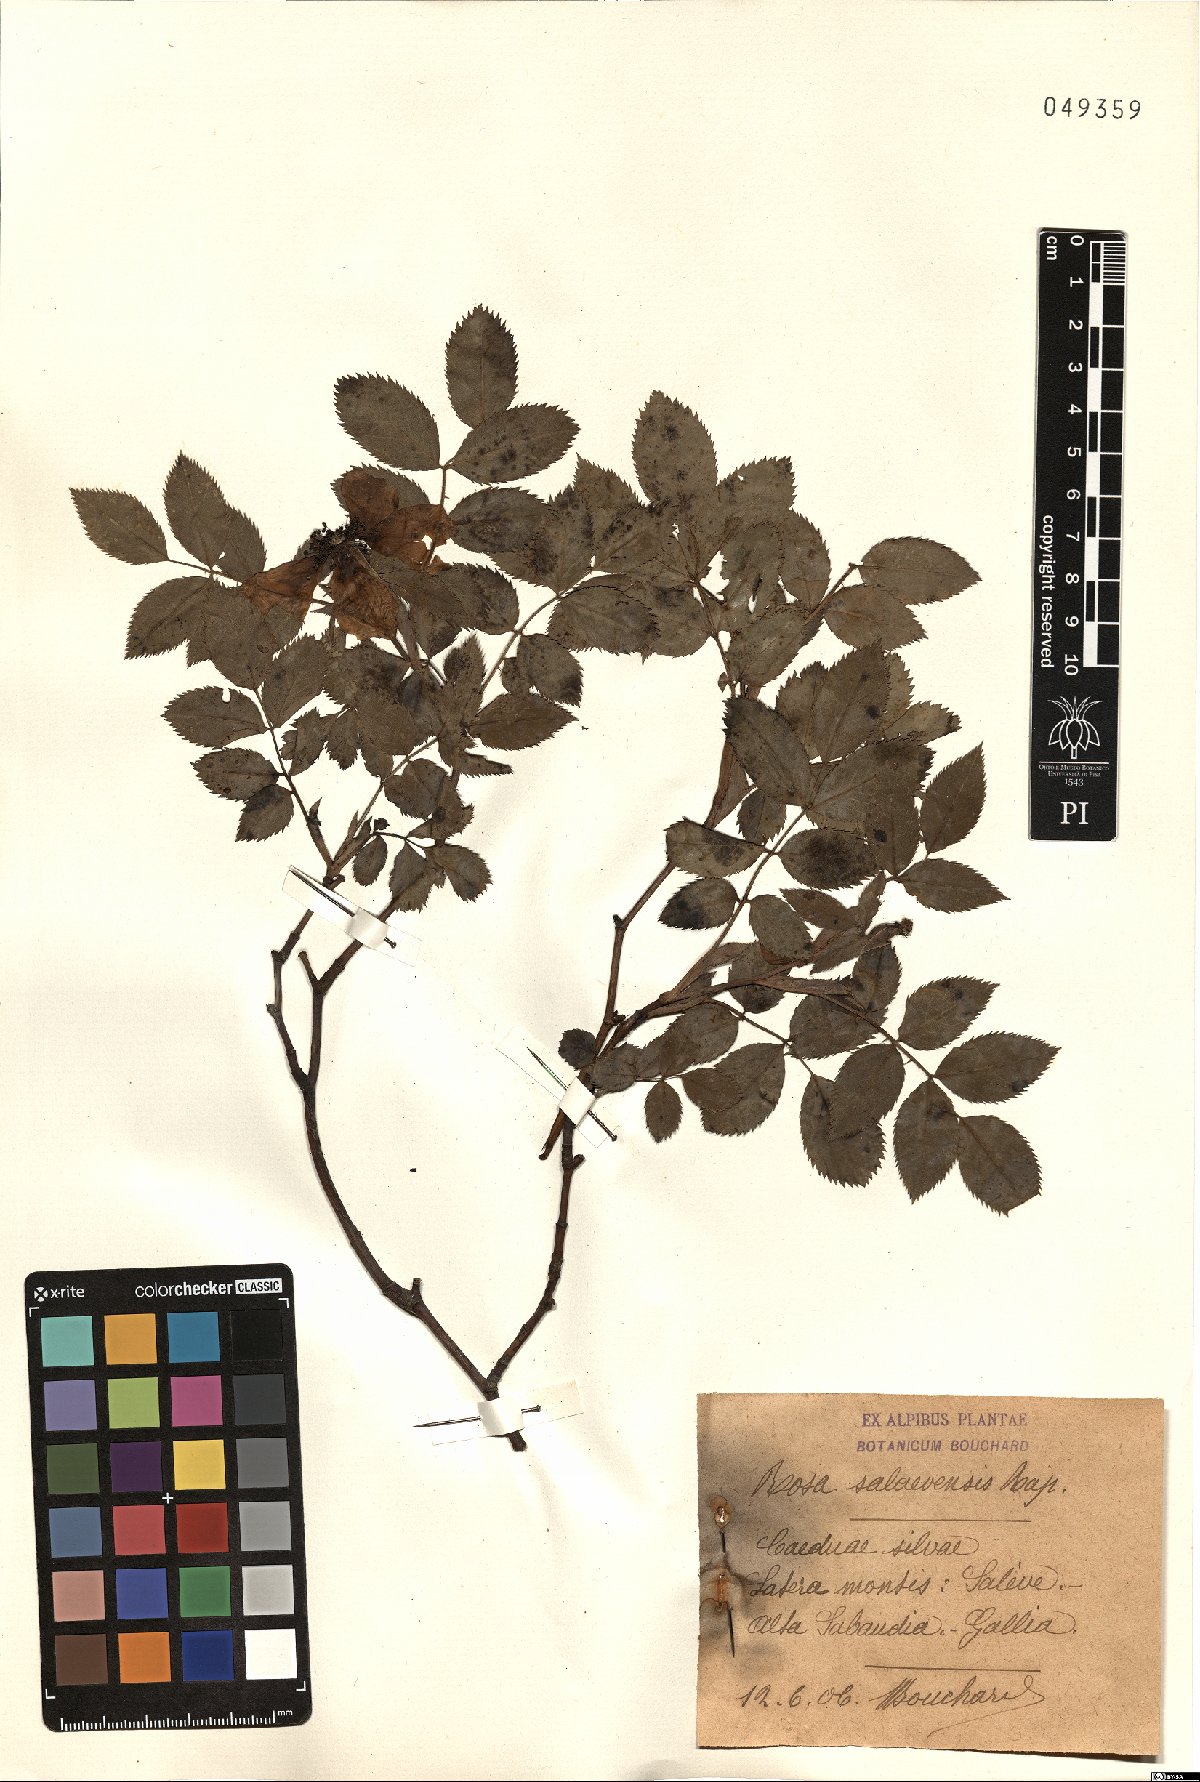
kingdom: Plantae
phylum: Tracheophyta
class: Magnoliopsida
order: Rosales
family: Rosaceae
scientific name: Rosaceae
